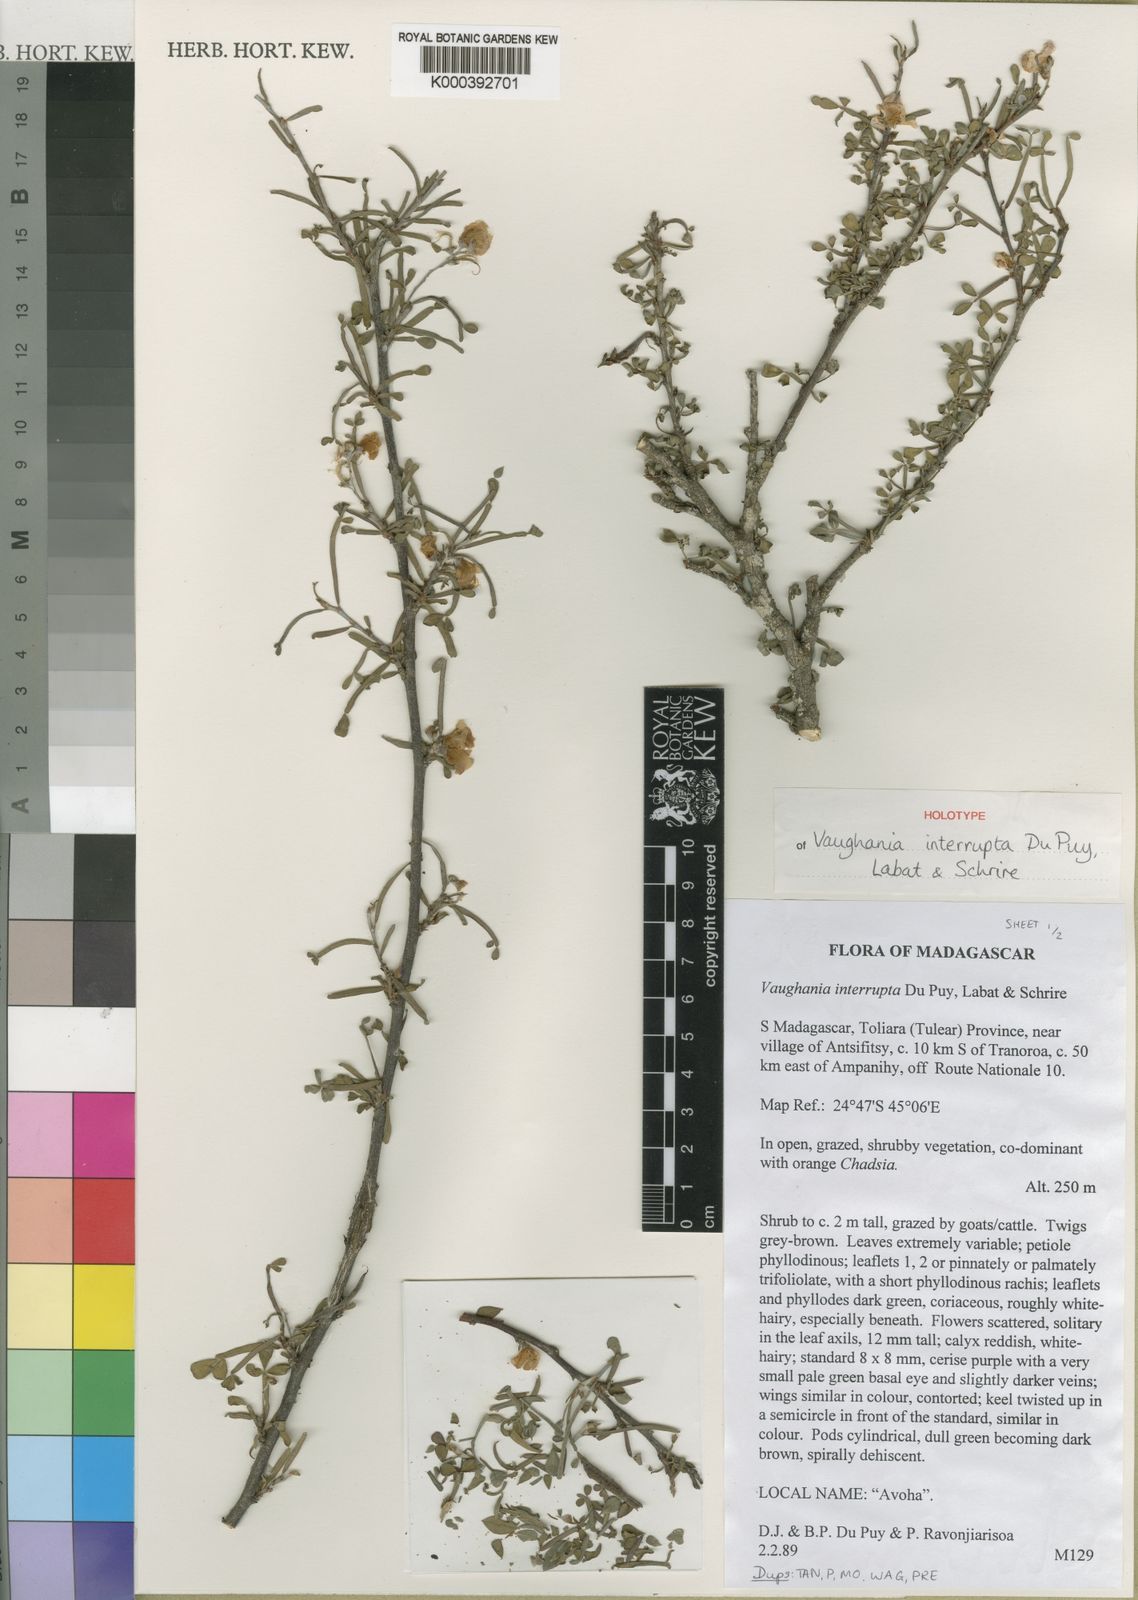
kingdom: Plantae
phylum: Tracheophyta
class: Magnoliopsida
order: Fabales
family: Fabaceae
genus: Indigofera
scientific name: Indigofera interrupta
